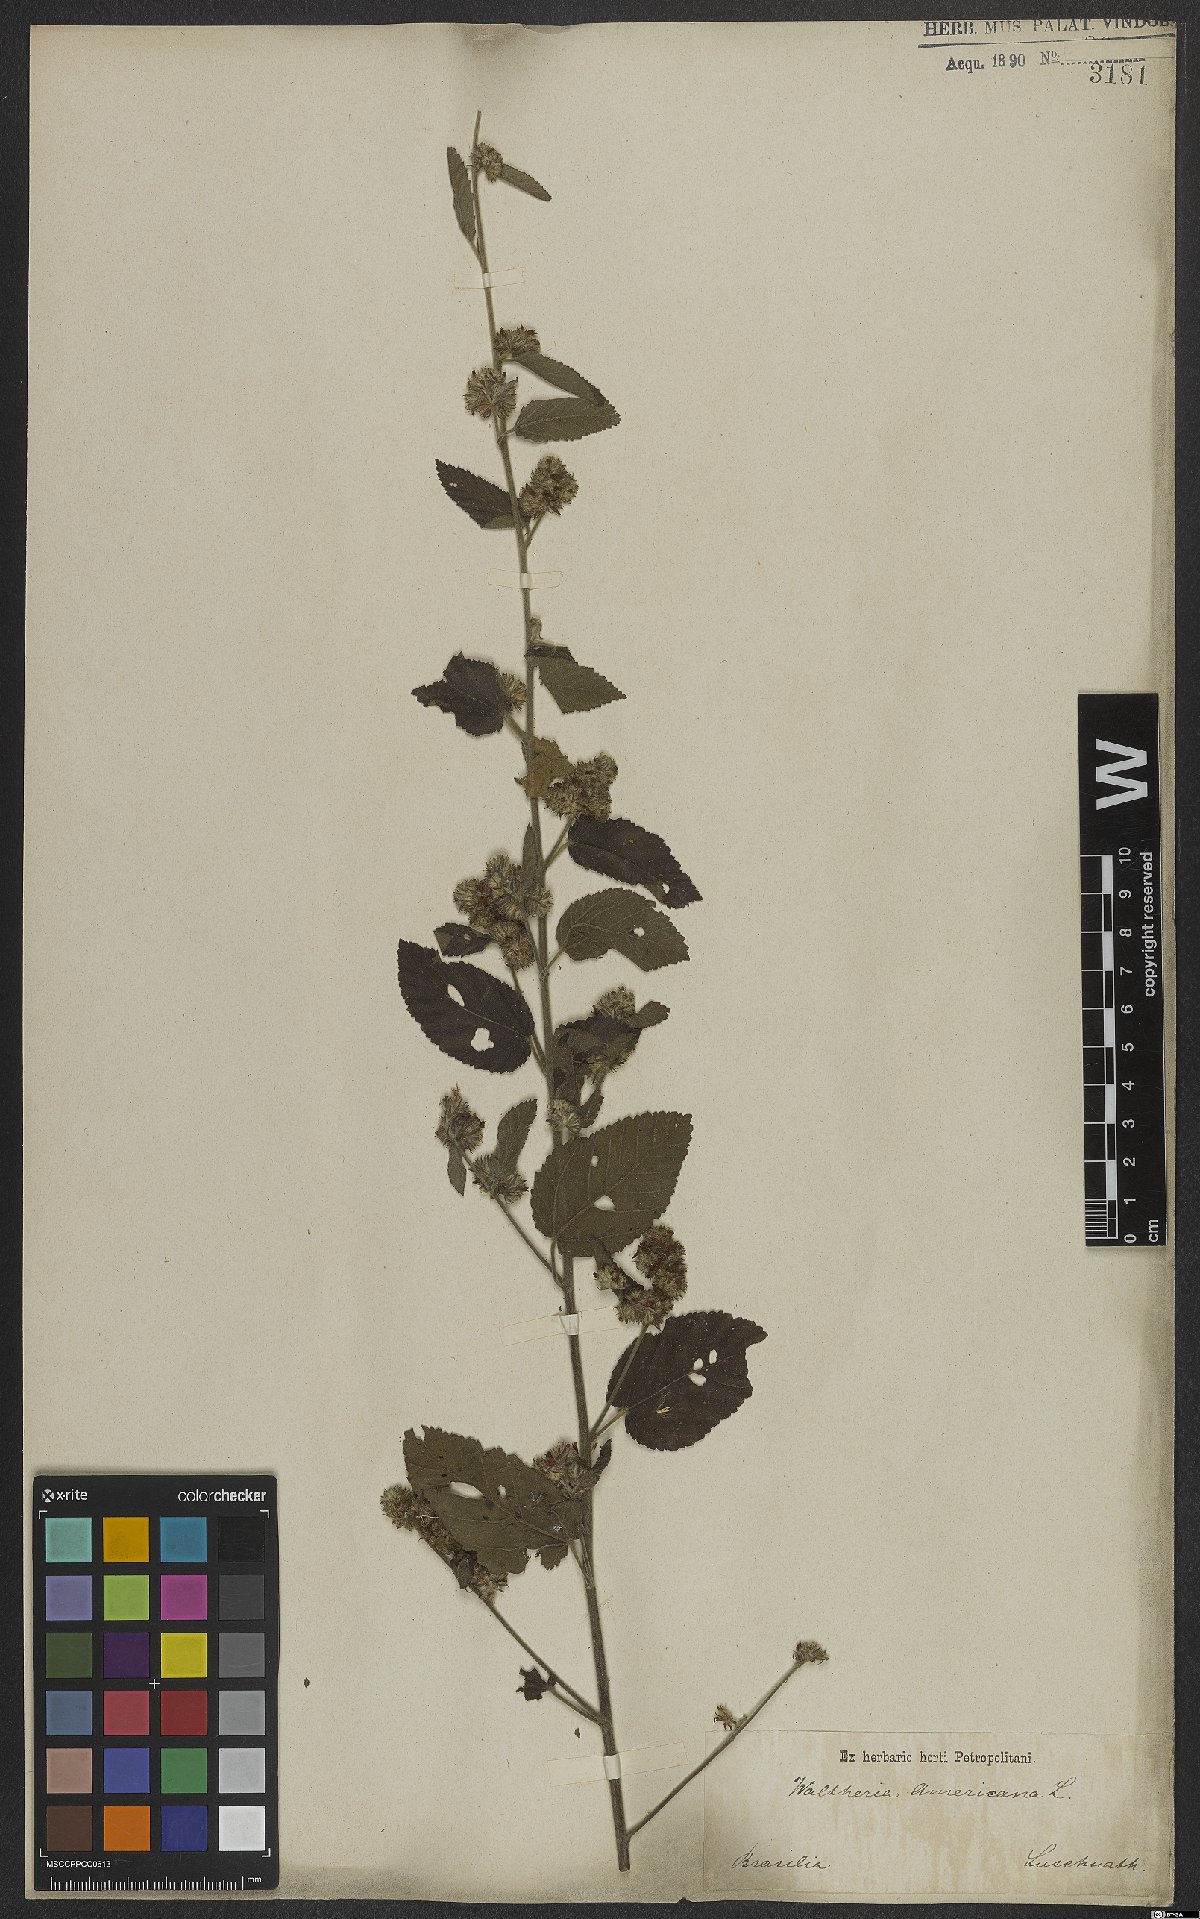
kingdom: Plantae
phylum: Tracheophyta
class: Magnoliopsida
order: Malvales
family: Malvaceae
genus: Waltheria
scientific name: Waltheria indica
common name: Leather-coat
